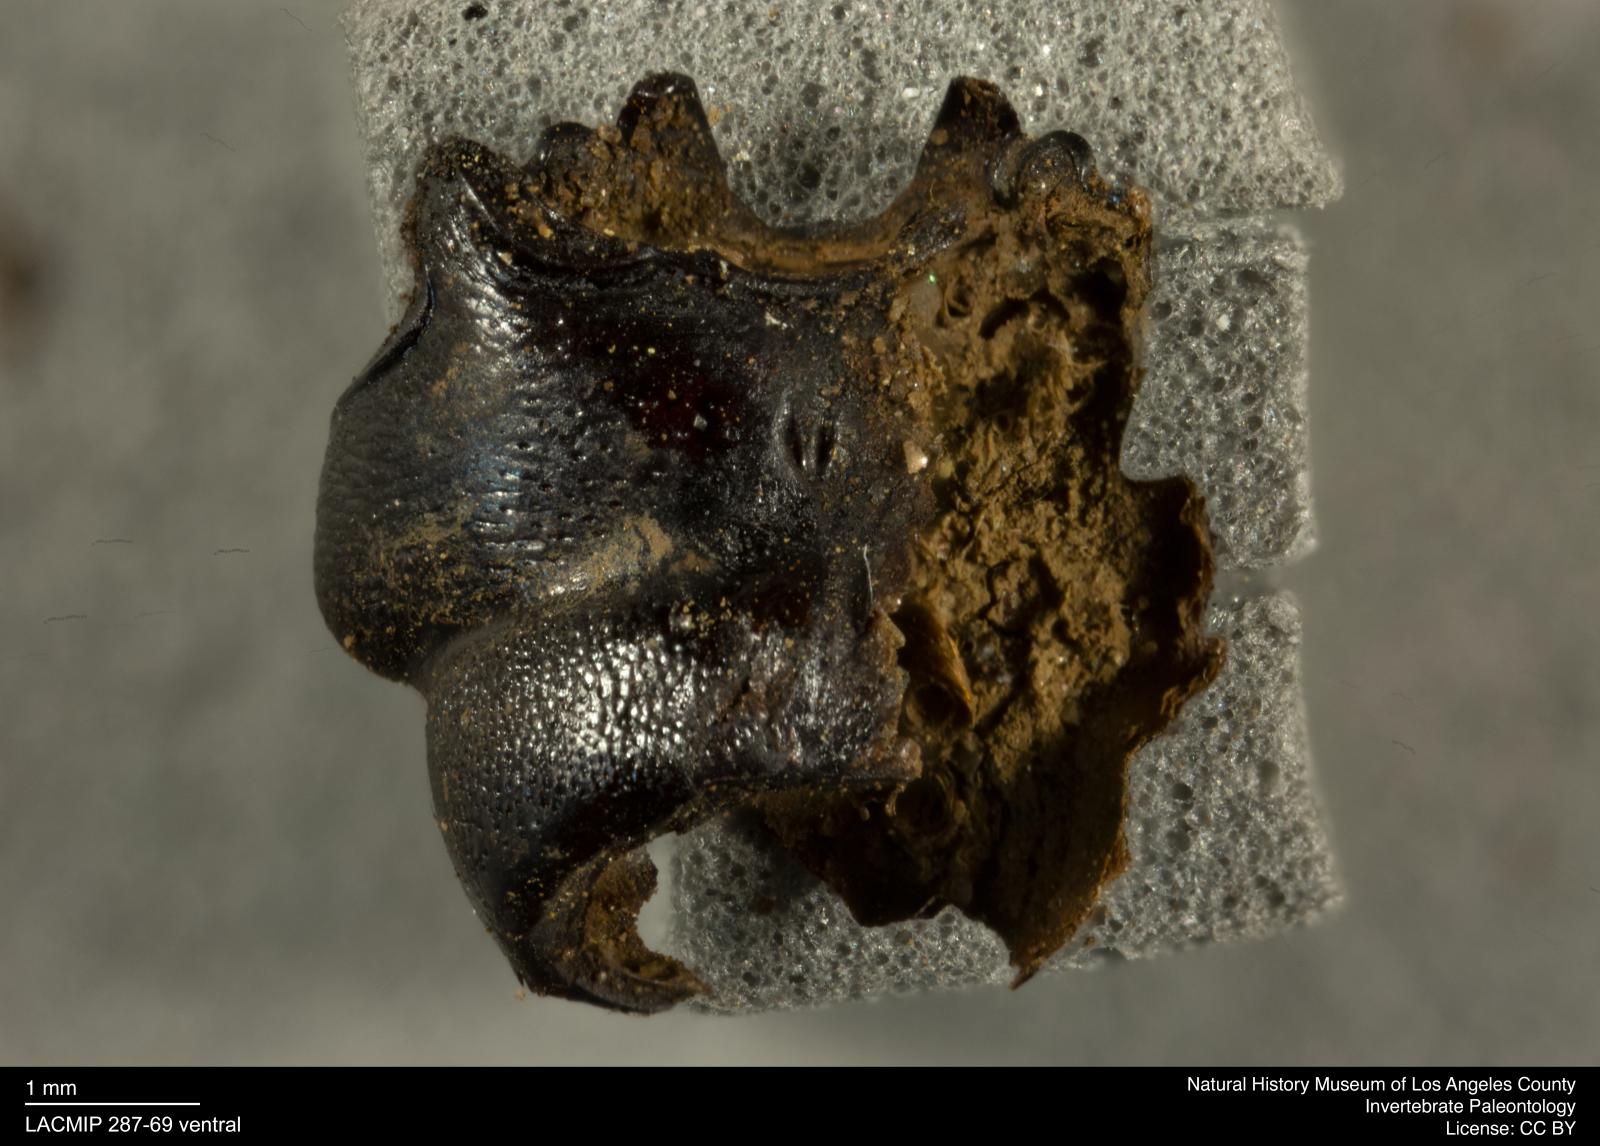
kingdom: Animalia
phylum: Arthropoda
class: Insecta
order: Coleoptera
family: Staphylinidae
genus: Nicrophorus
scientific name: Nicrophorus marginatus
